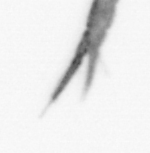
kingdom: Animalia
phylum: Arthropoda
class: Copepoda
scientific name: Copepoda
